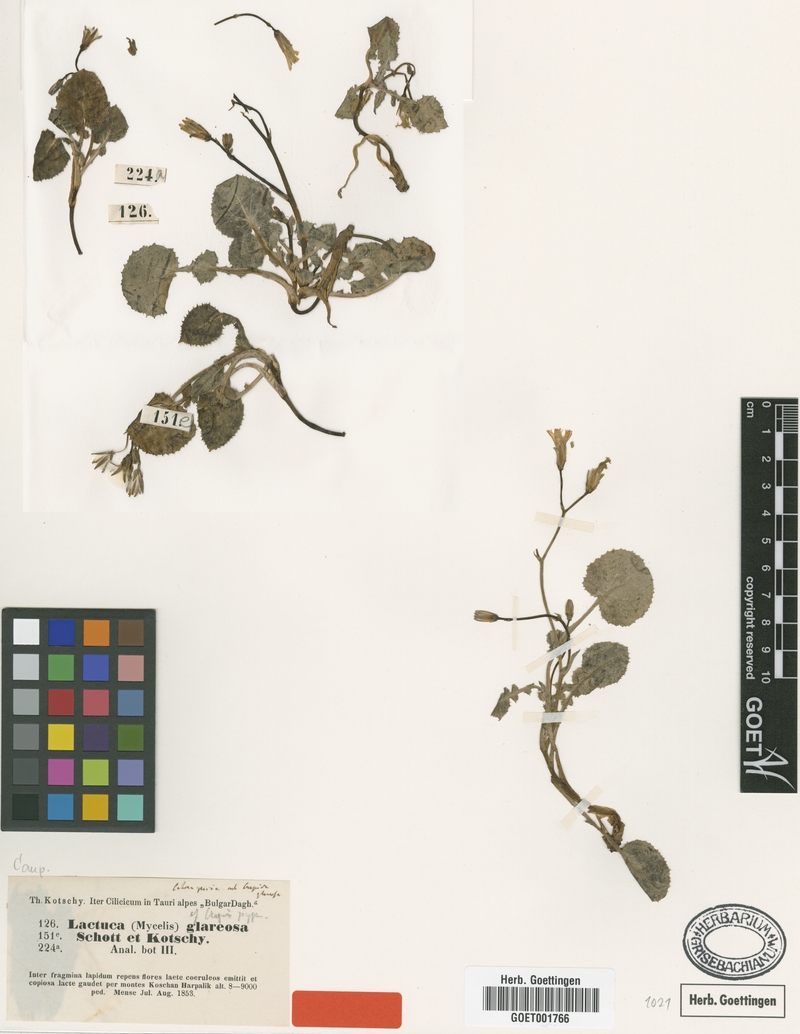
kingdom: Plantae
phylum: Tracheophyta
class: Magnoliopsida
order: Asterales
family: Asteraceae
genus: Lactuca
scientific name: Lactuca glareosa
